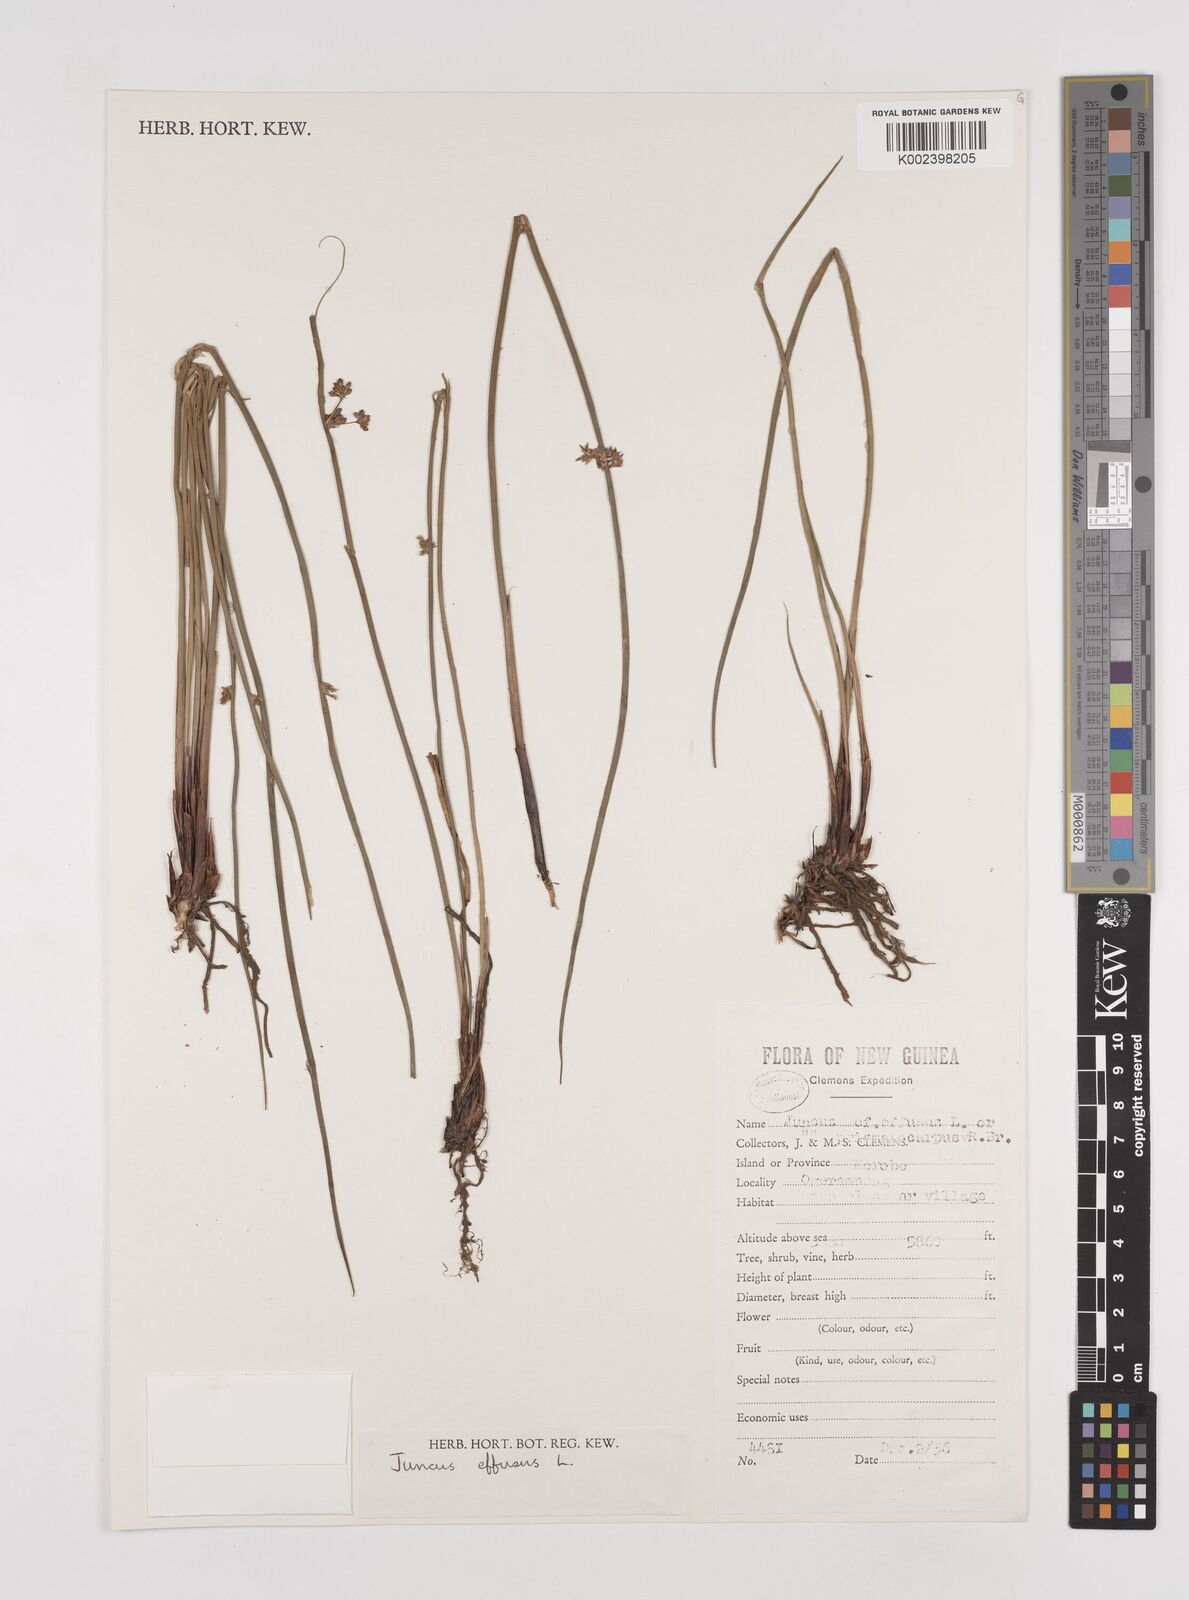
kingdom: Plantae
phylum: Tracheophyta
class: Liliopsida
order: Poales
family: Juncaceae
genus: Juncus
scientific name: Juncus decipiens
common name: Lamp rush
